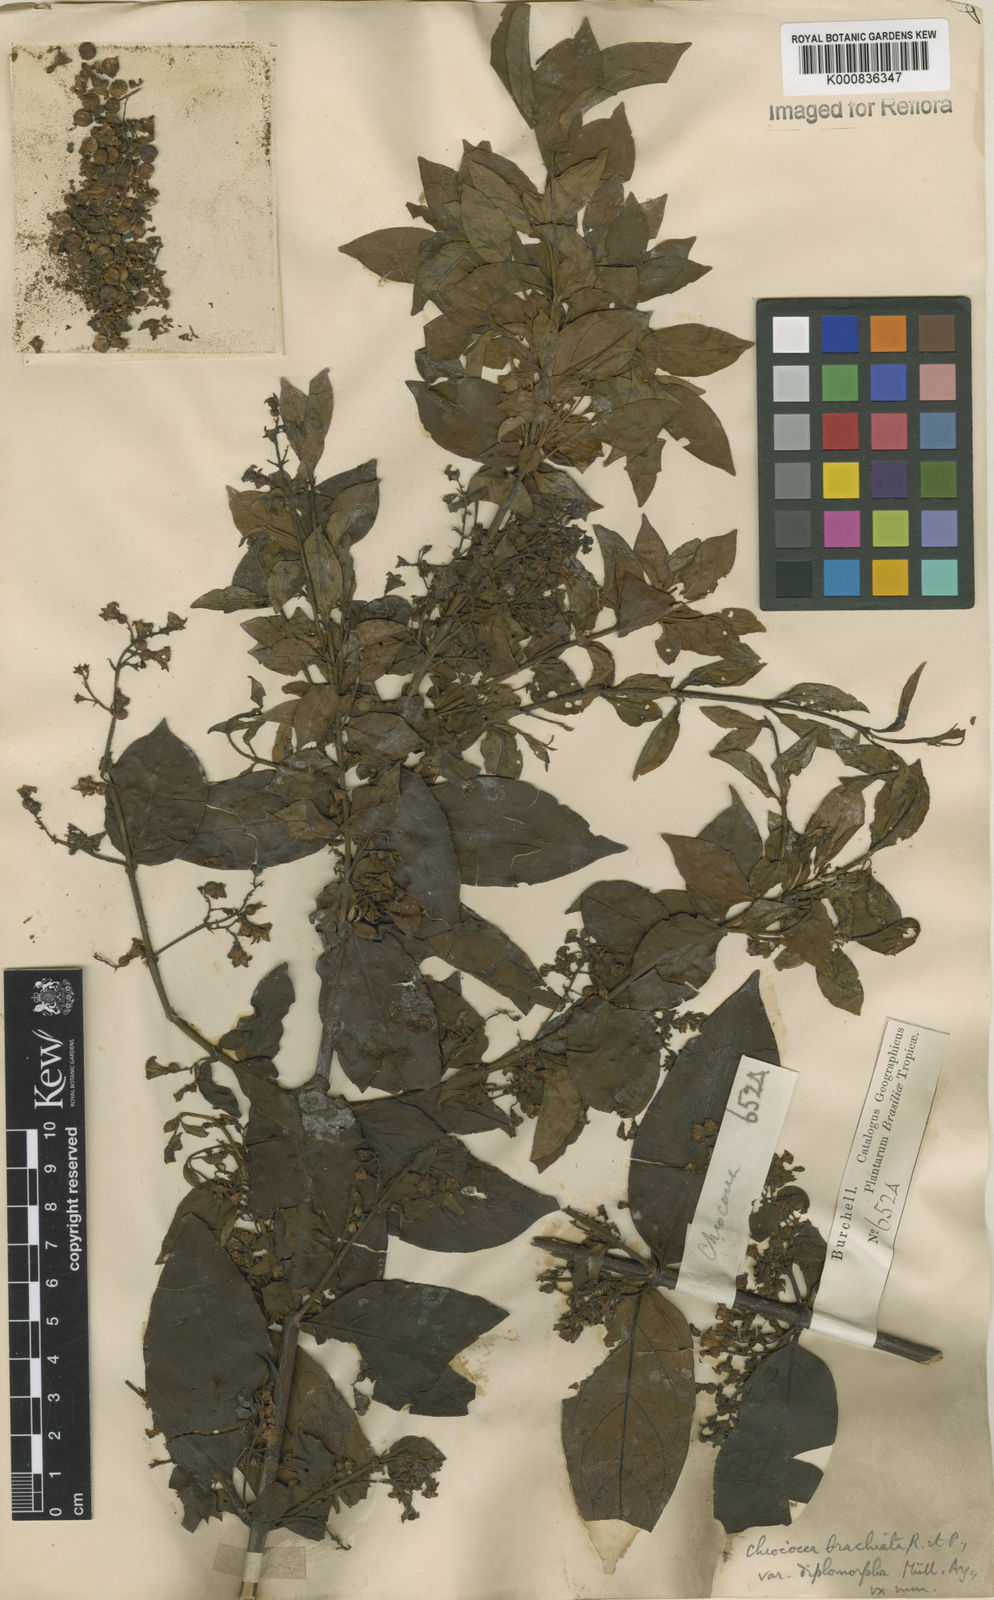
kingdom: Plantae
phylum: Tracheophyta
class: Magnoliopsida
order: Gentianales
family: Rubiaceae
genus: Chiococca
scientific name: Chiococca alba
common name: Snowberry
